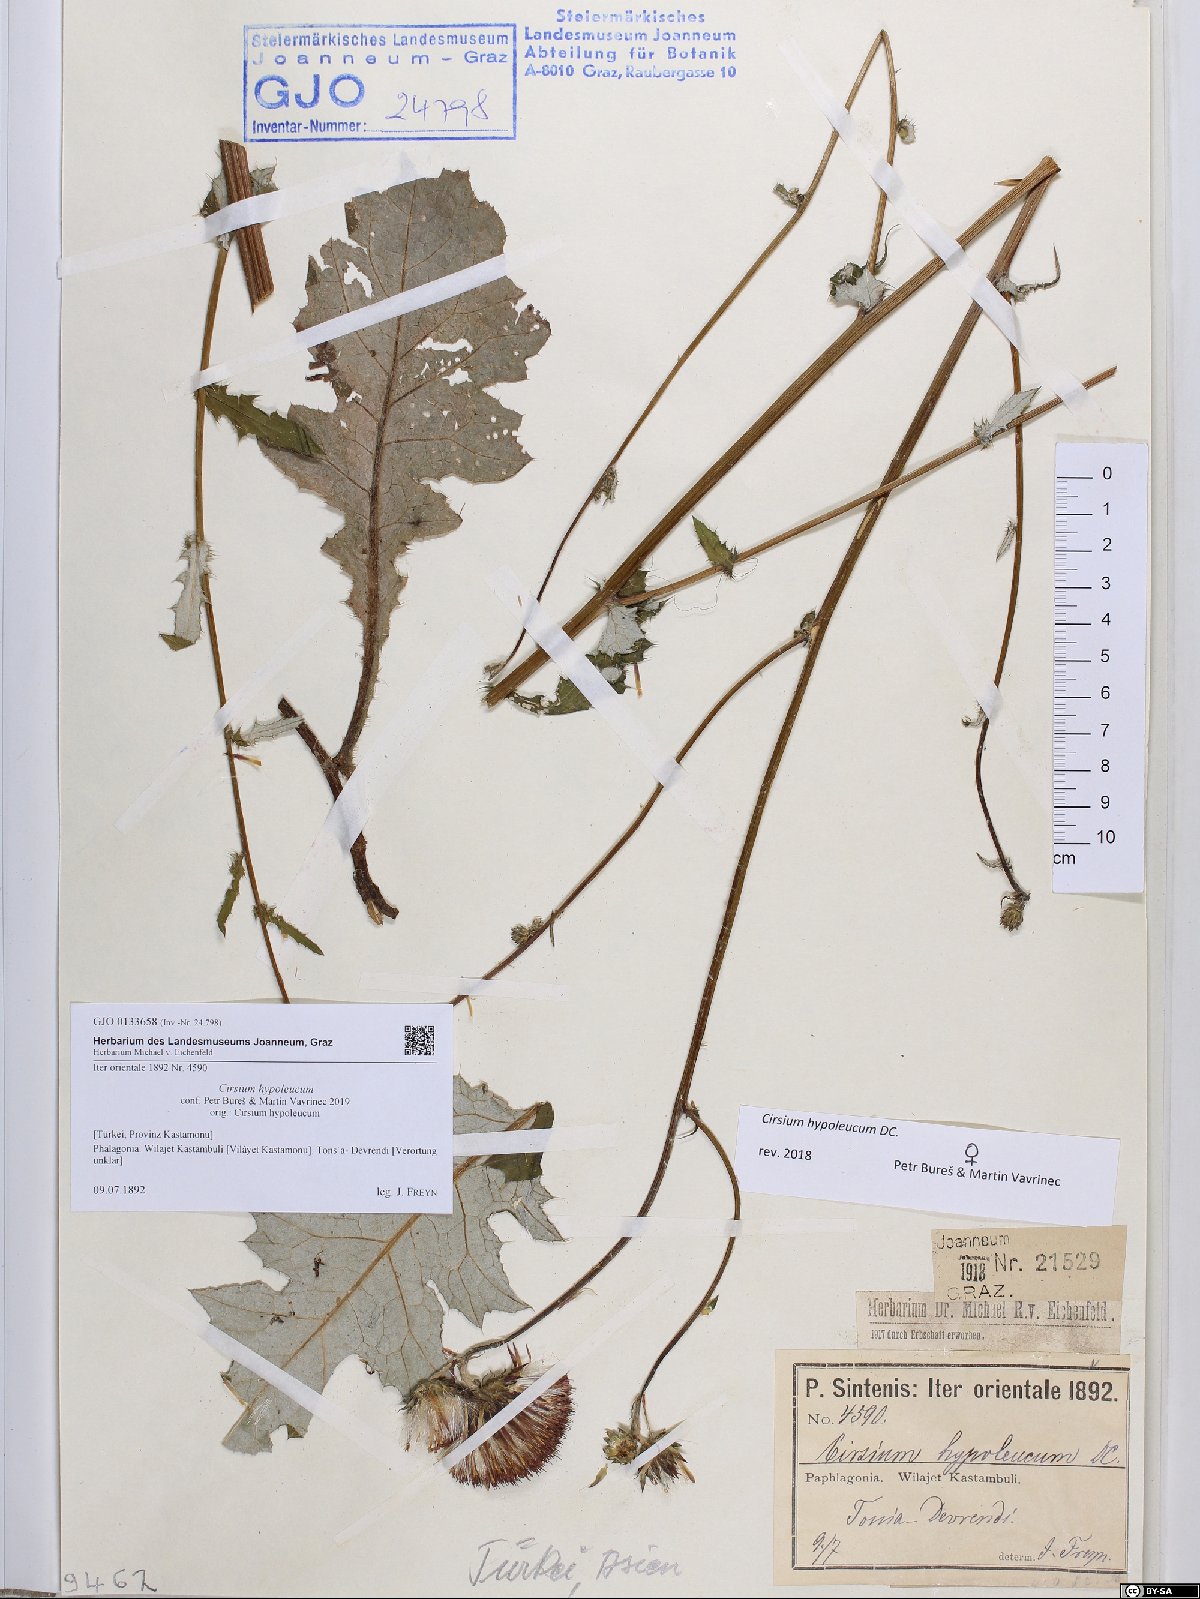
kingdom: Plantae
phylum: Tracheophyta
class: Magnoliopsida
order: Asterales
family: Asteraceae
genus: Cirsium
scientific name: Cirsium hypoleucum
